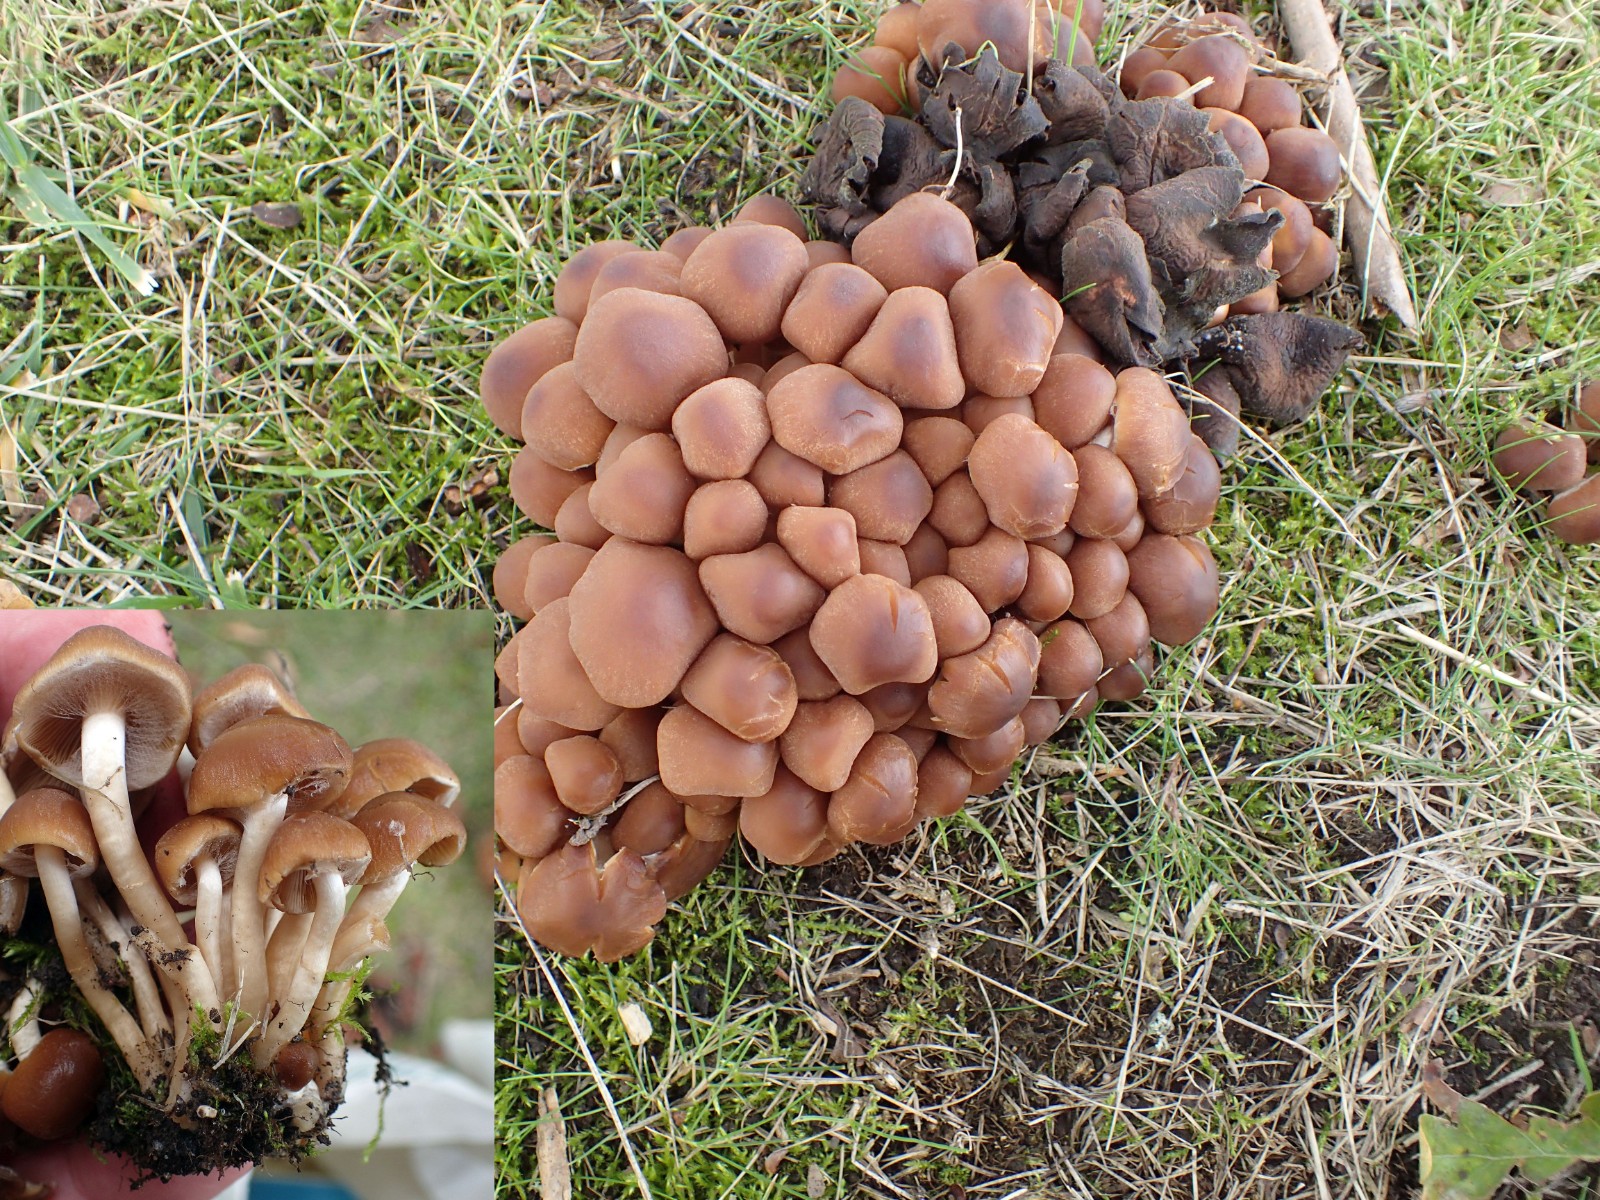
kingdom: Fungi
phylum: Basidiomycota
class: Agaricomycetes
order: Agaricales
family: Psathyrellaceae
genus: Psathyrella
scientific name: Psathyrella piluliformis
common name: lysstokket mørkhat
